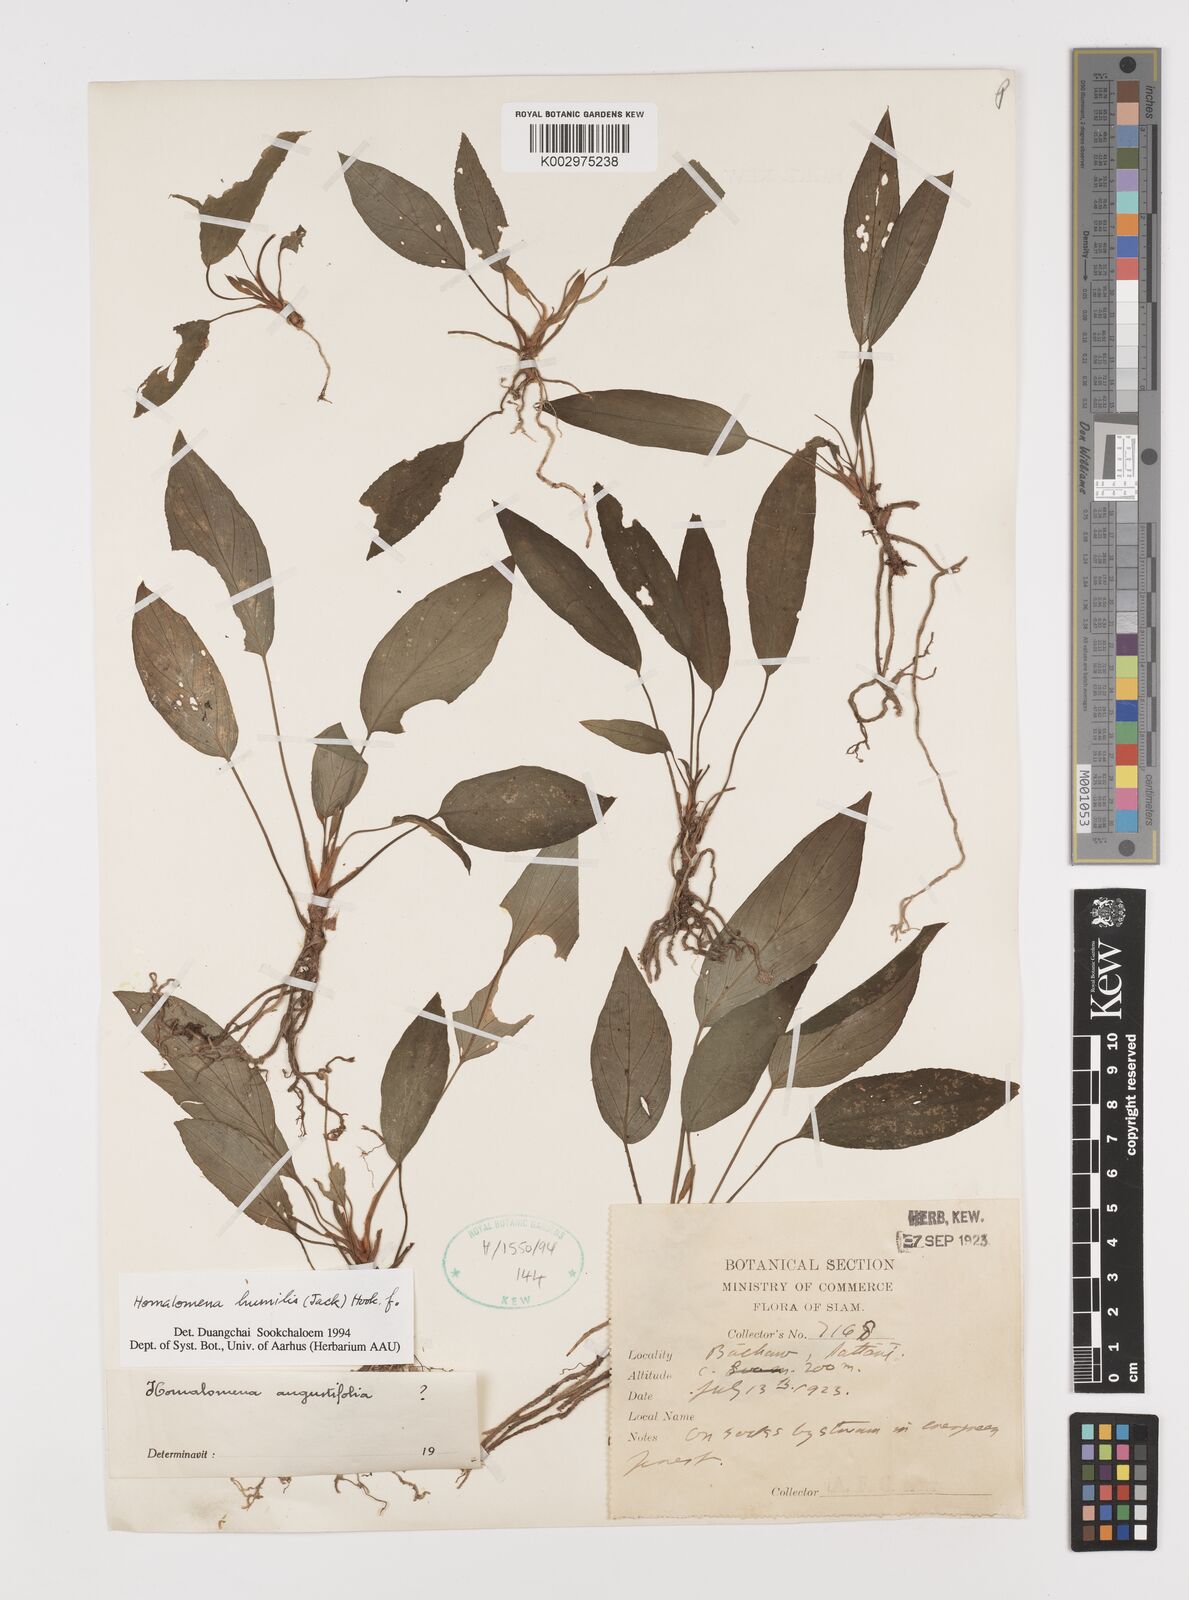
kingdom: Plantae
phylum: Tracheophyta
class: Liliopsida
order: Alismatales
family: Araceae
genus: Homalomena
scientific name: Homalomena humilis
